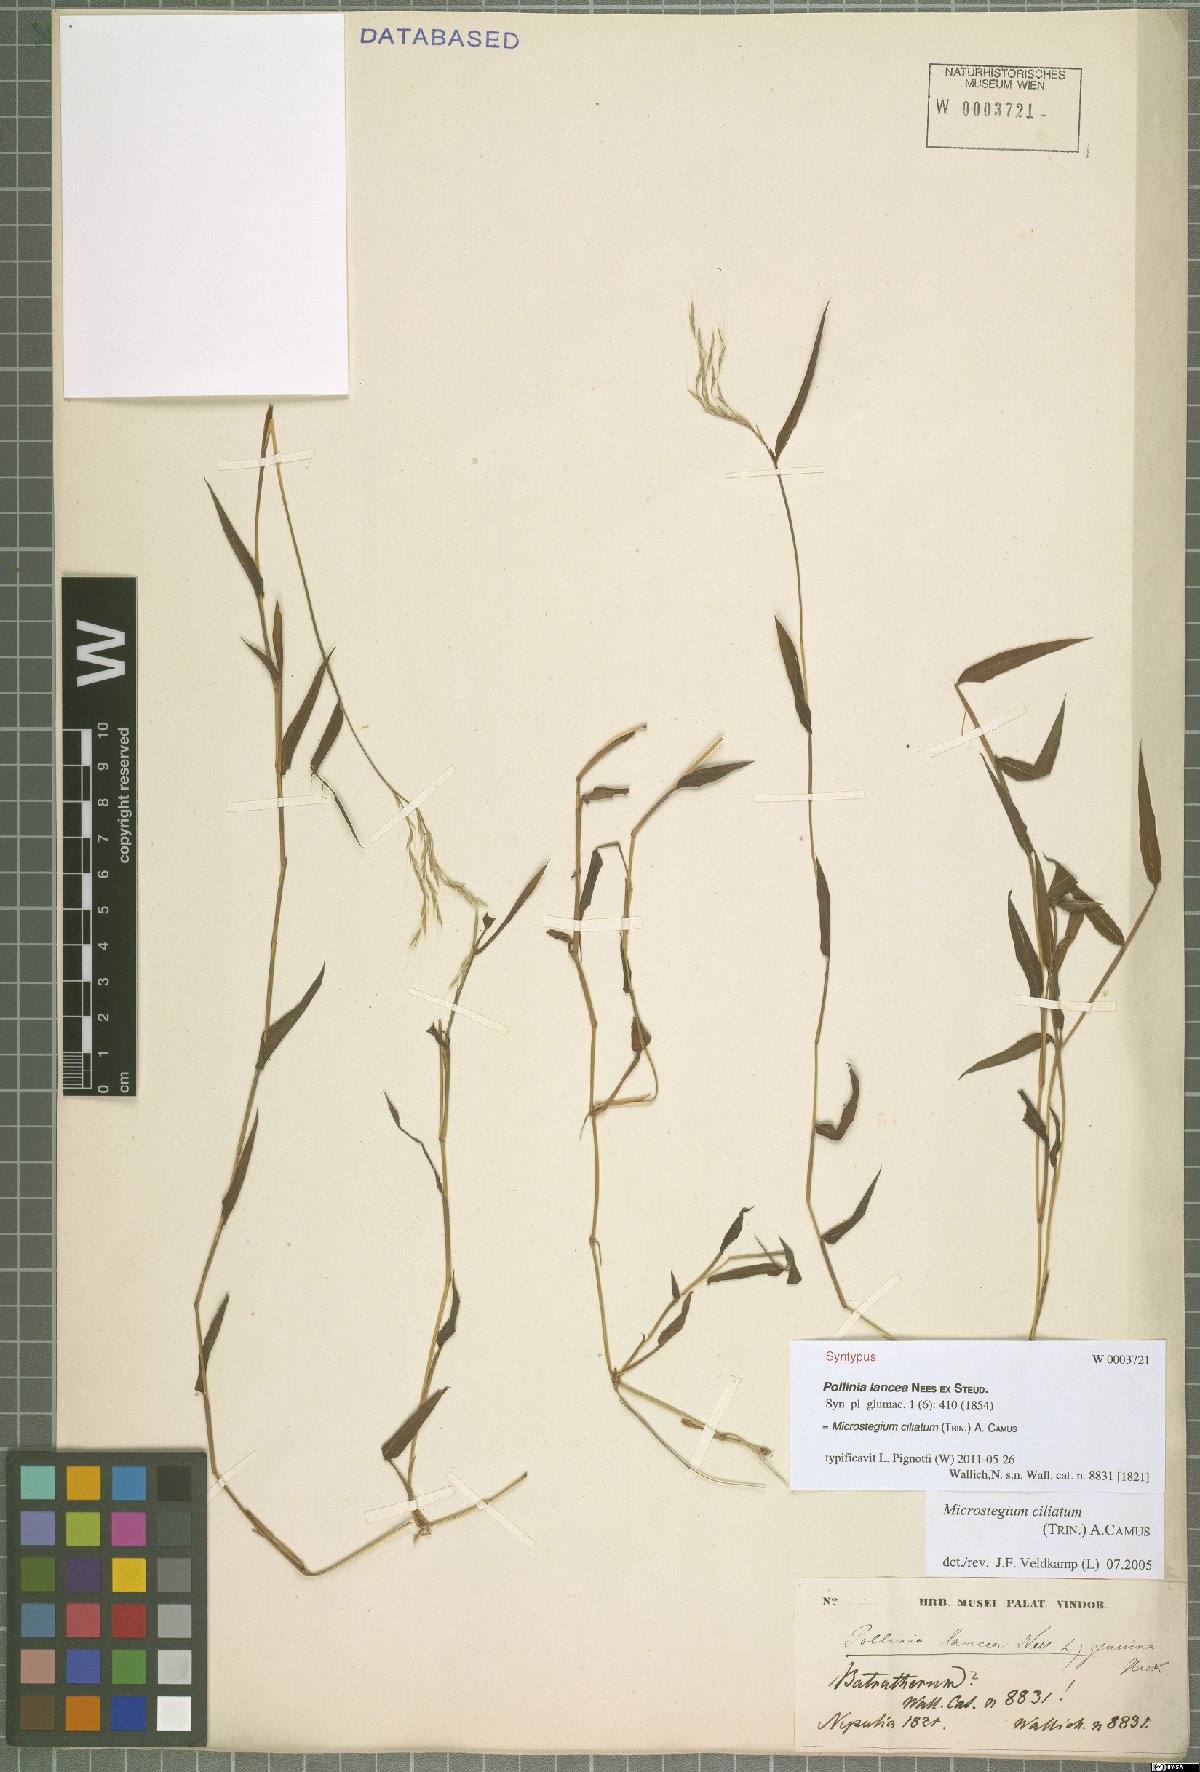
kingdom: Plantae
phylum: Tracheophyta
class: Liliopsida
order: Poales
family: Poaceae
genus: Microstegium
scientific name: Microstegium fasciculatum
